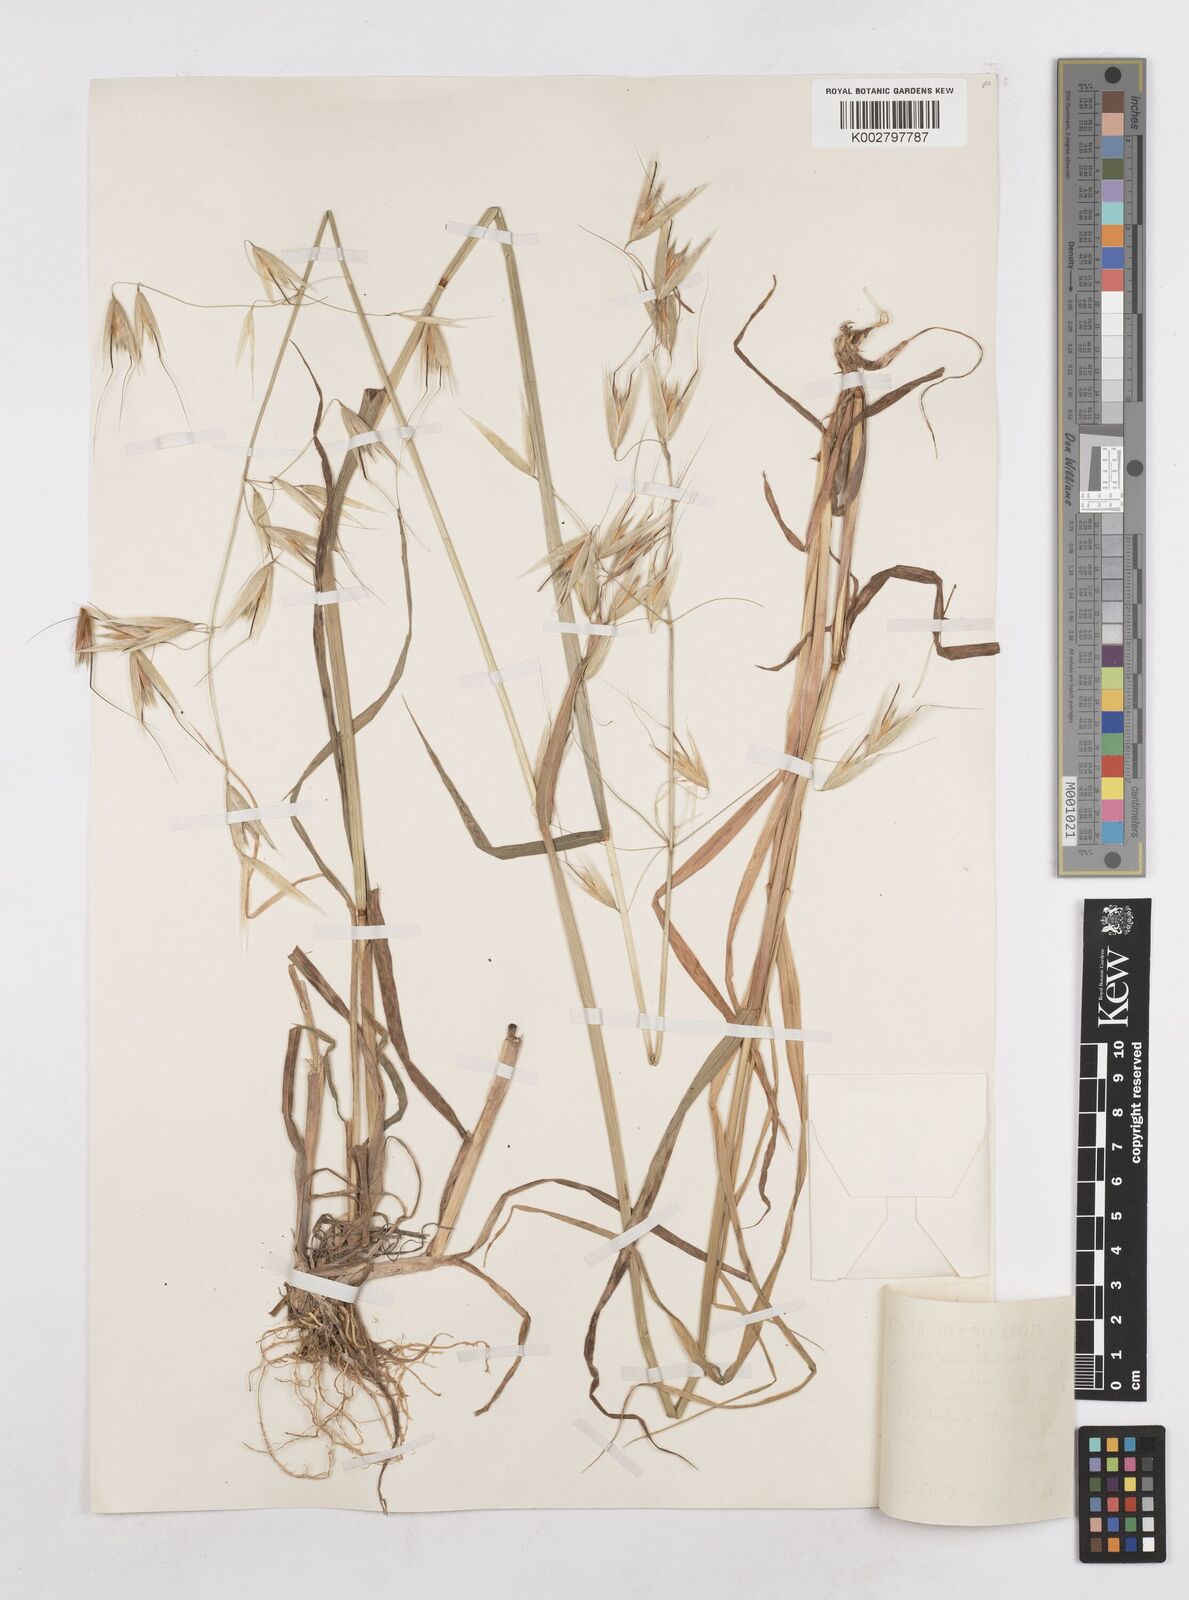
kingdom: Plantae
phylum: Tracheophyta
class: Liliopsida
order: Poales
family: Poaceae
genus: Avena
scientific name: Avena sterilis
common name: Animated oat
